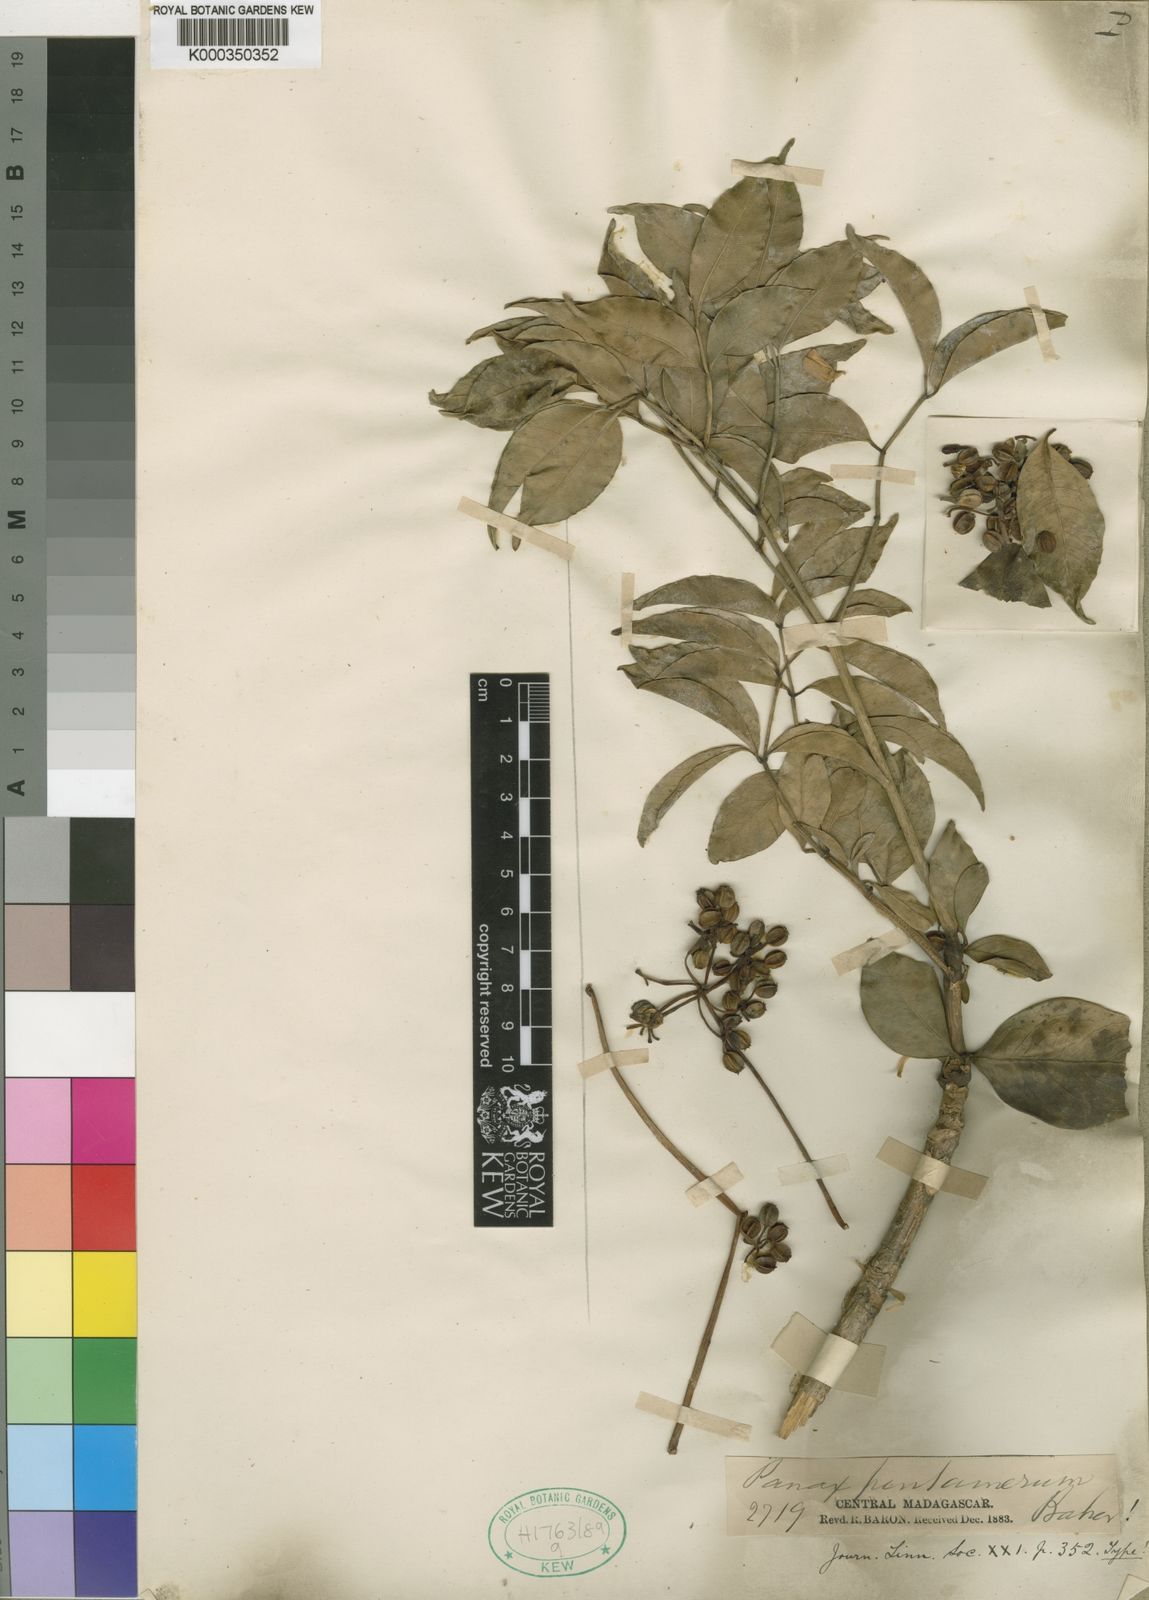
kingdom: Plantae
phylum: Tracheophyta
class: Magnoliopsida
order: Apiales
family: Araliaceae
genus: Polyscias
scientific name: Polyscias pentamera
